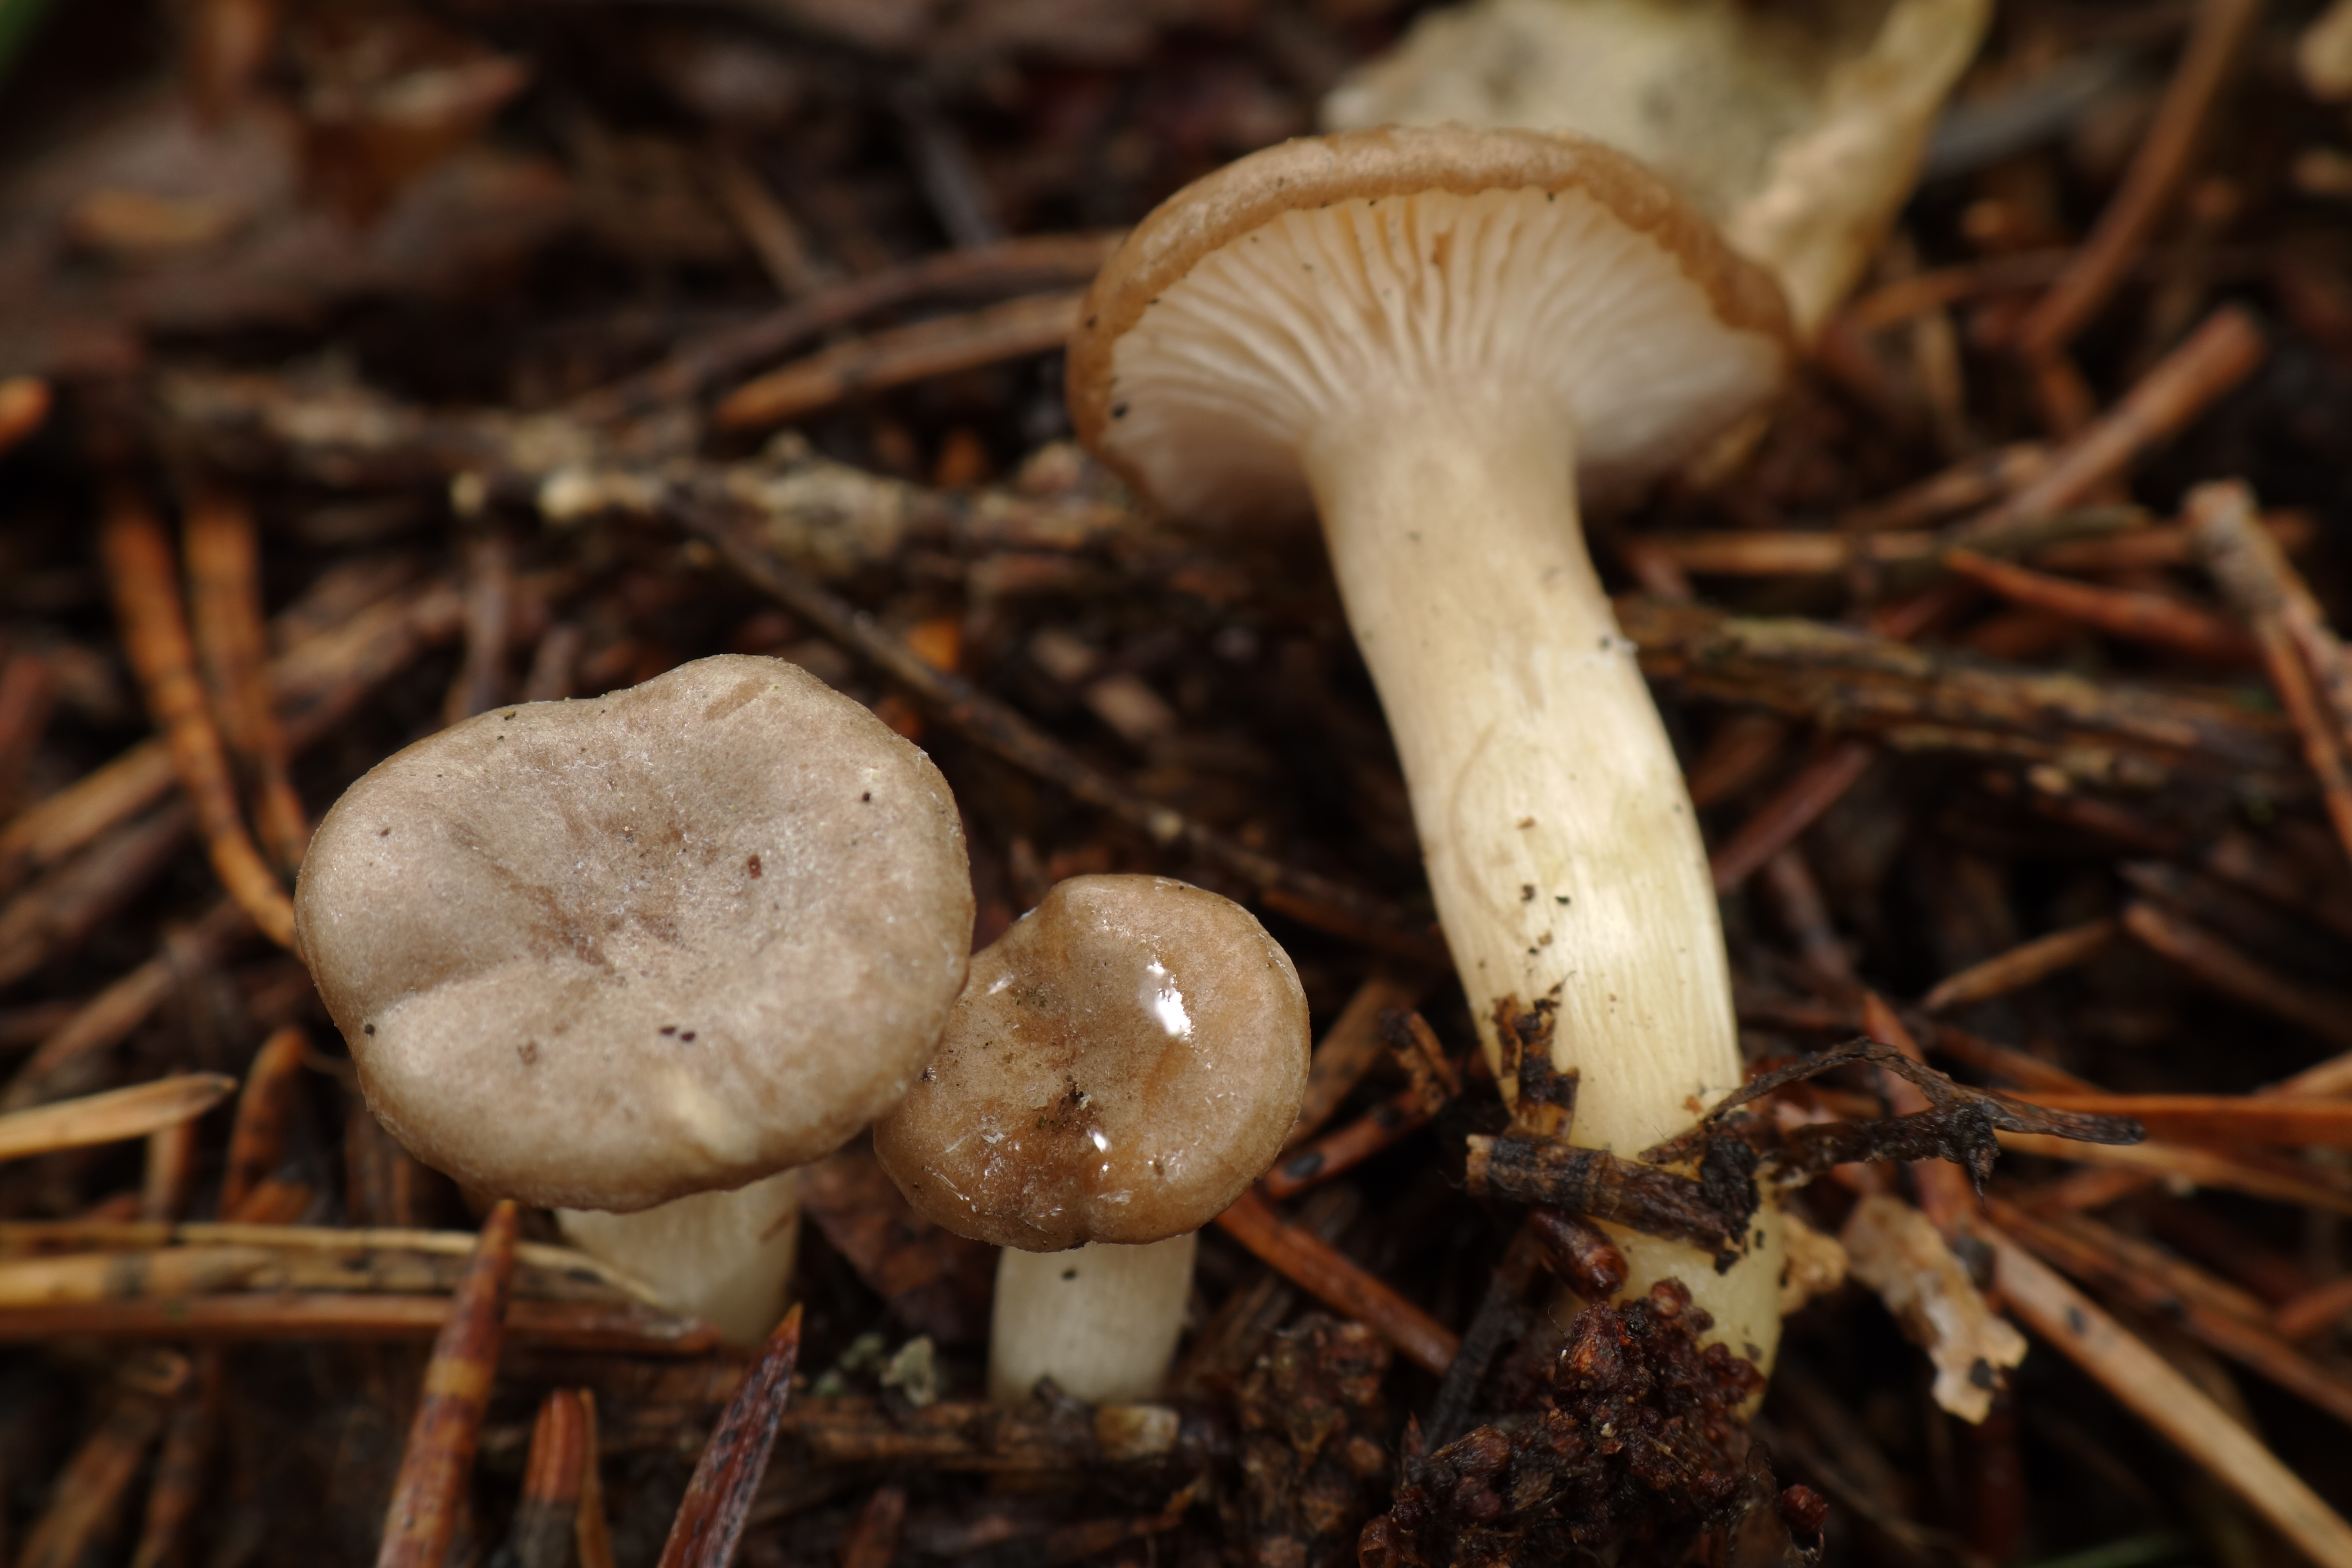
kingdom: Fungi
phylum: Basidiomycota
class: Agaricomycetes
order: Agaricales
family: Tricholomataceae
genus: Rhizocybe
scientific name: Rhizocybe pruinosa
